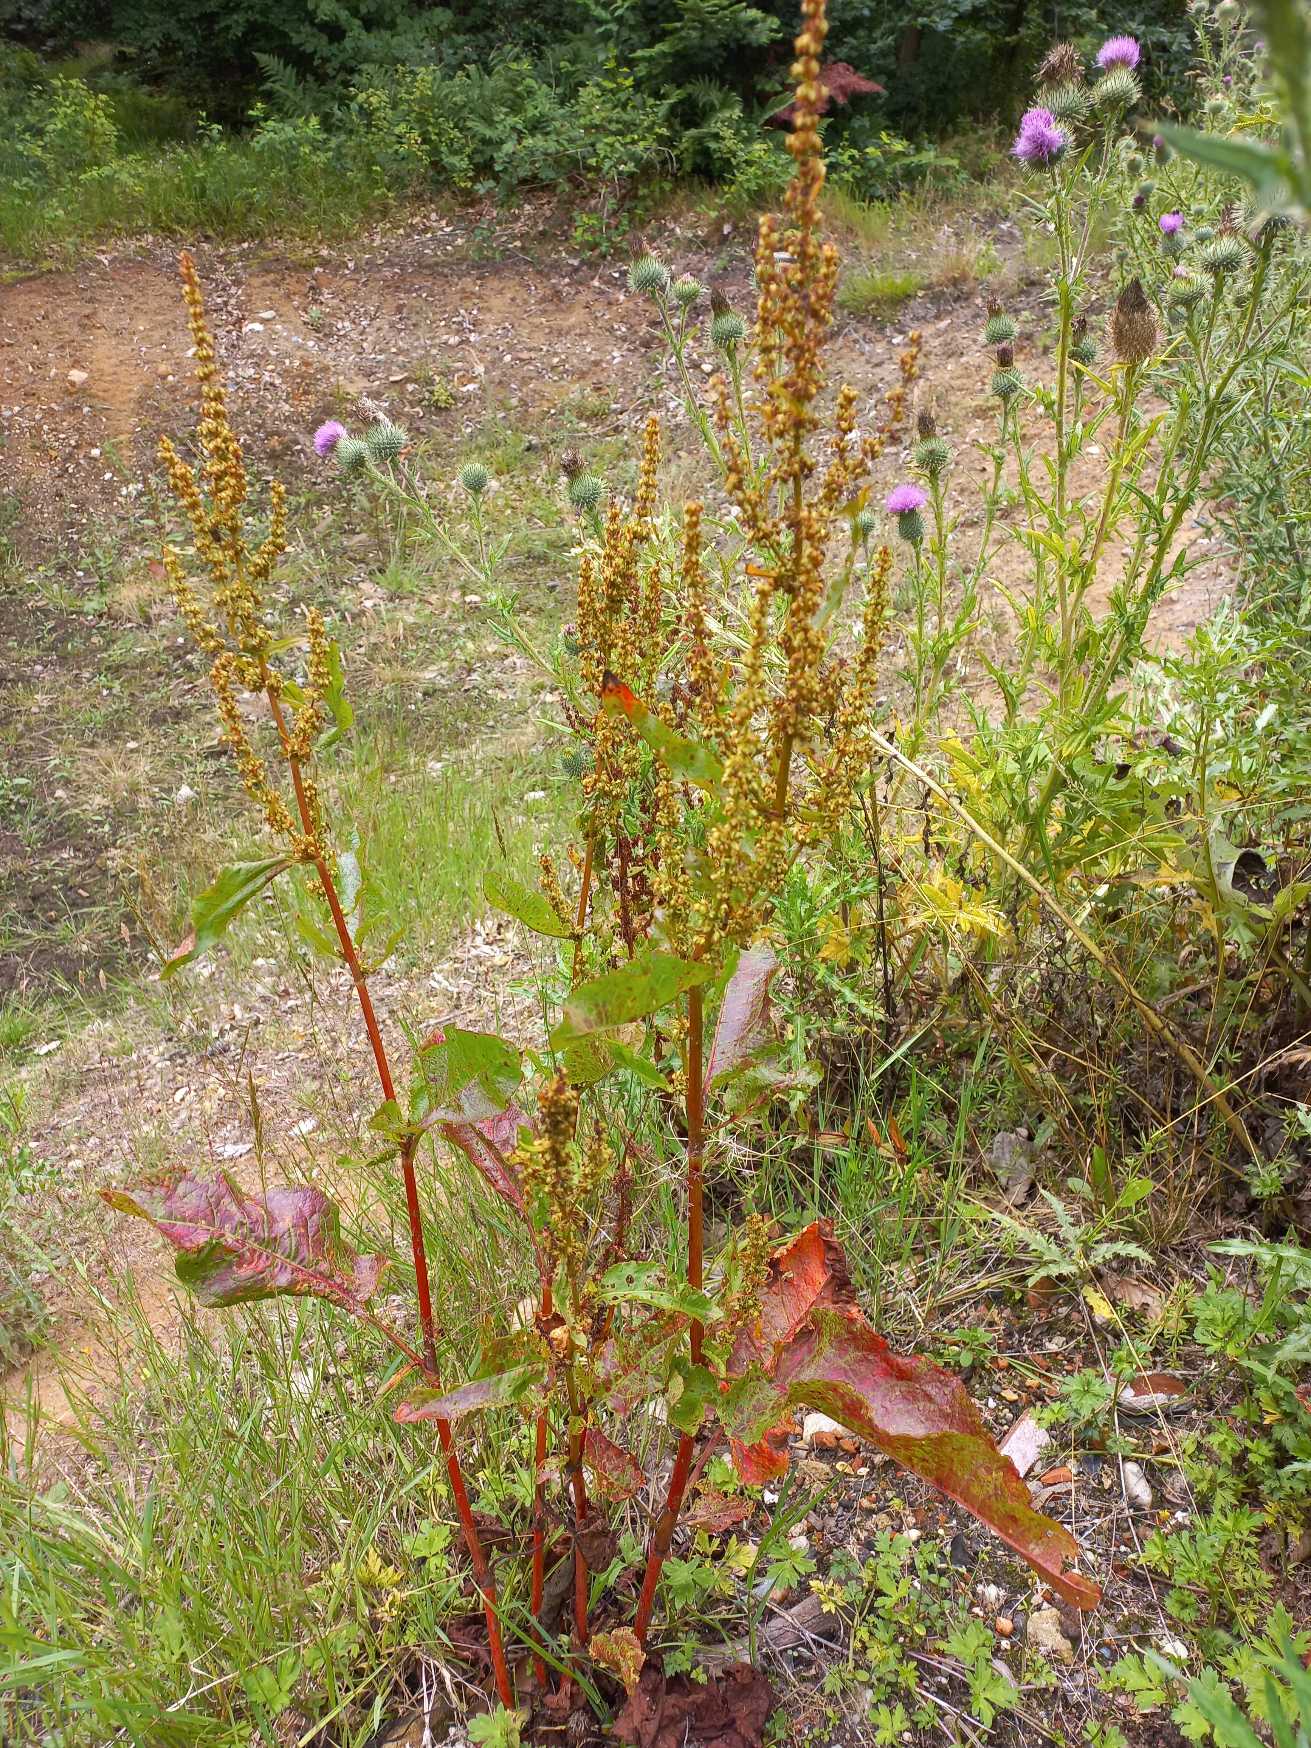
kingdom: Plantae
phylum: Tracheophyta
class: Magnoliopsida
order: Caryophyllales
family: Polygonaceae
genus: Rumex
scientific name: Rumex obtusifolius
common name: Butbladet skræppe
